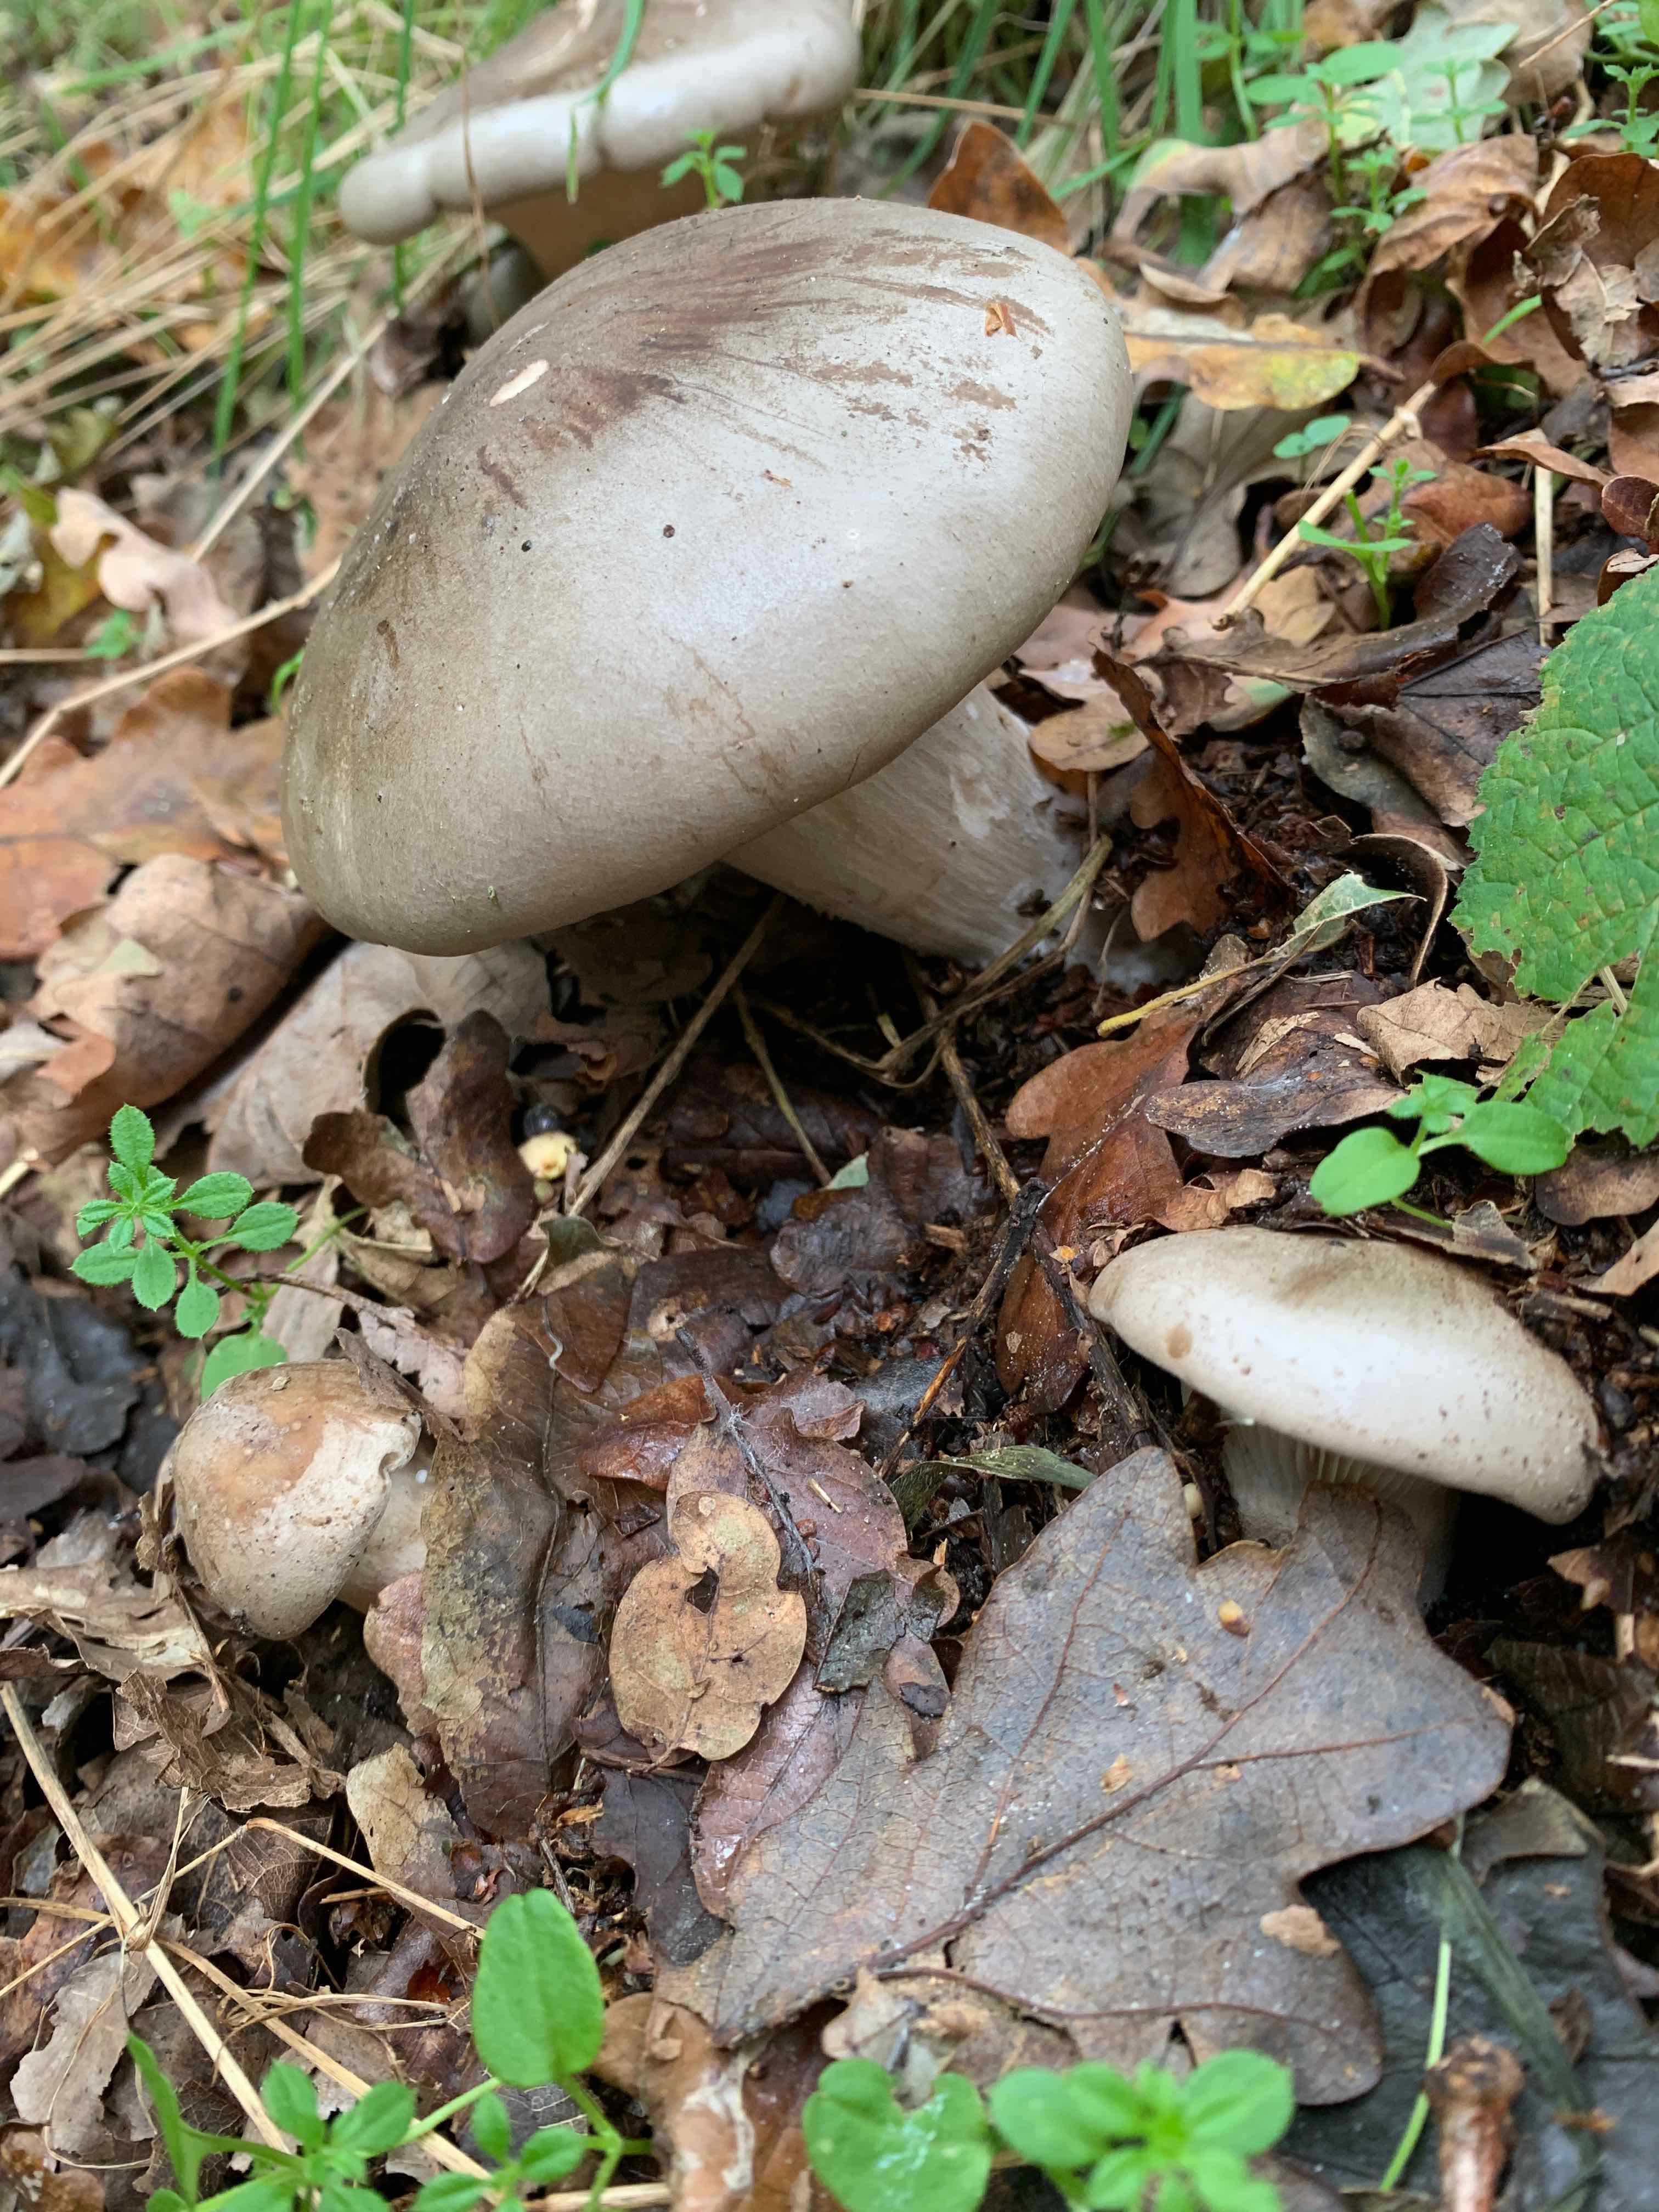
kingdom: Fungi
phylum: Basidiomycota
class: Agaricomycetes
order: Agaricales
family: Tricholomataceae
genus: Clitocybe
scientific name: Clitocybe nebularis
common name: tåge-tragthat
